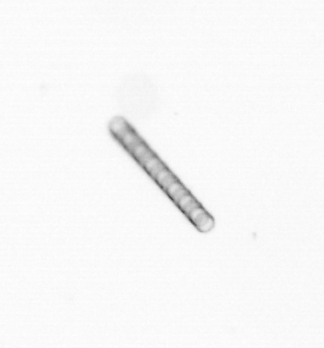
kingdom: Chromista
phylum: Ochrophyta
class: Bacillariophyceae
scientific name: Bacillariophyceae
